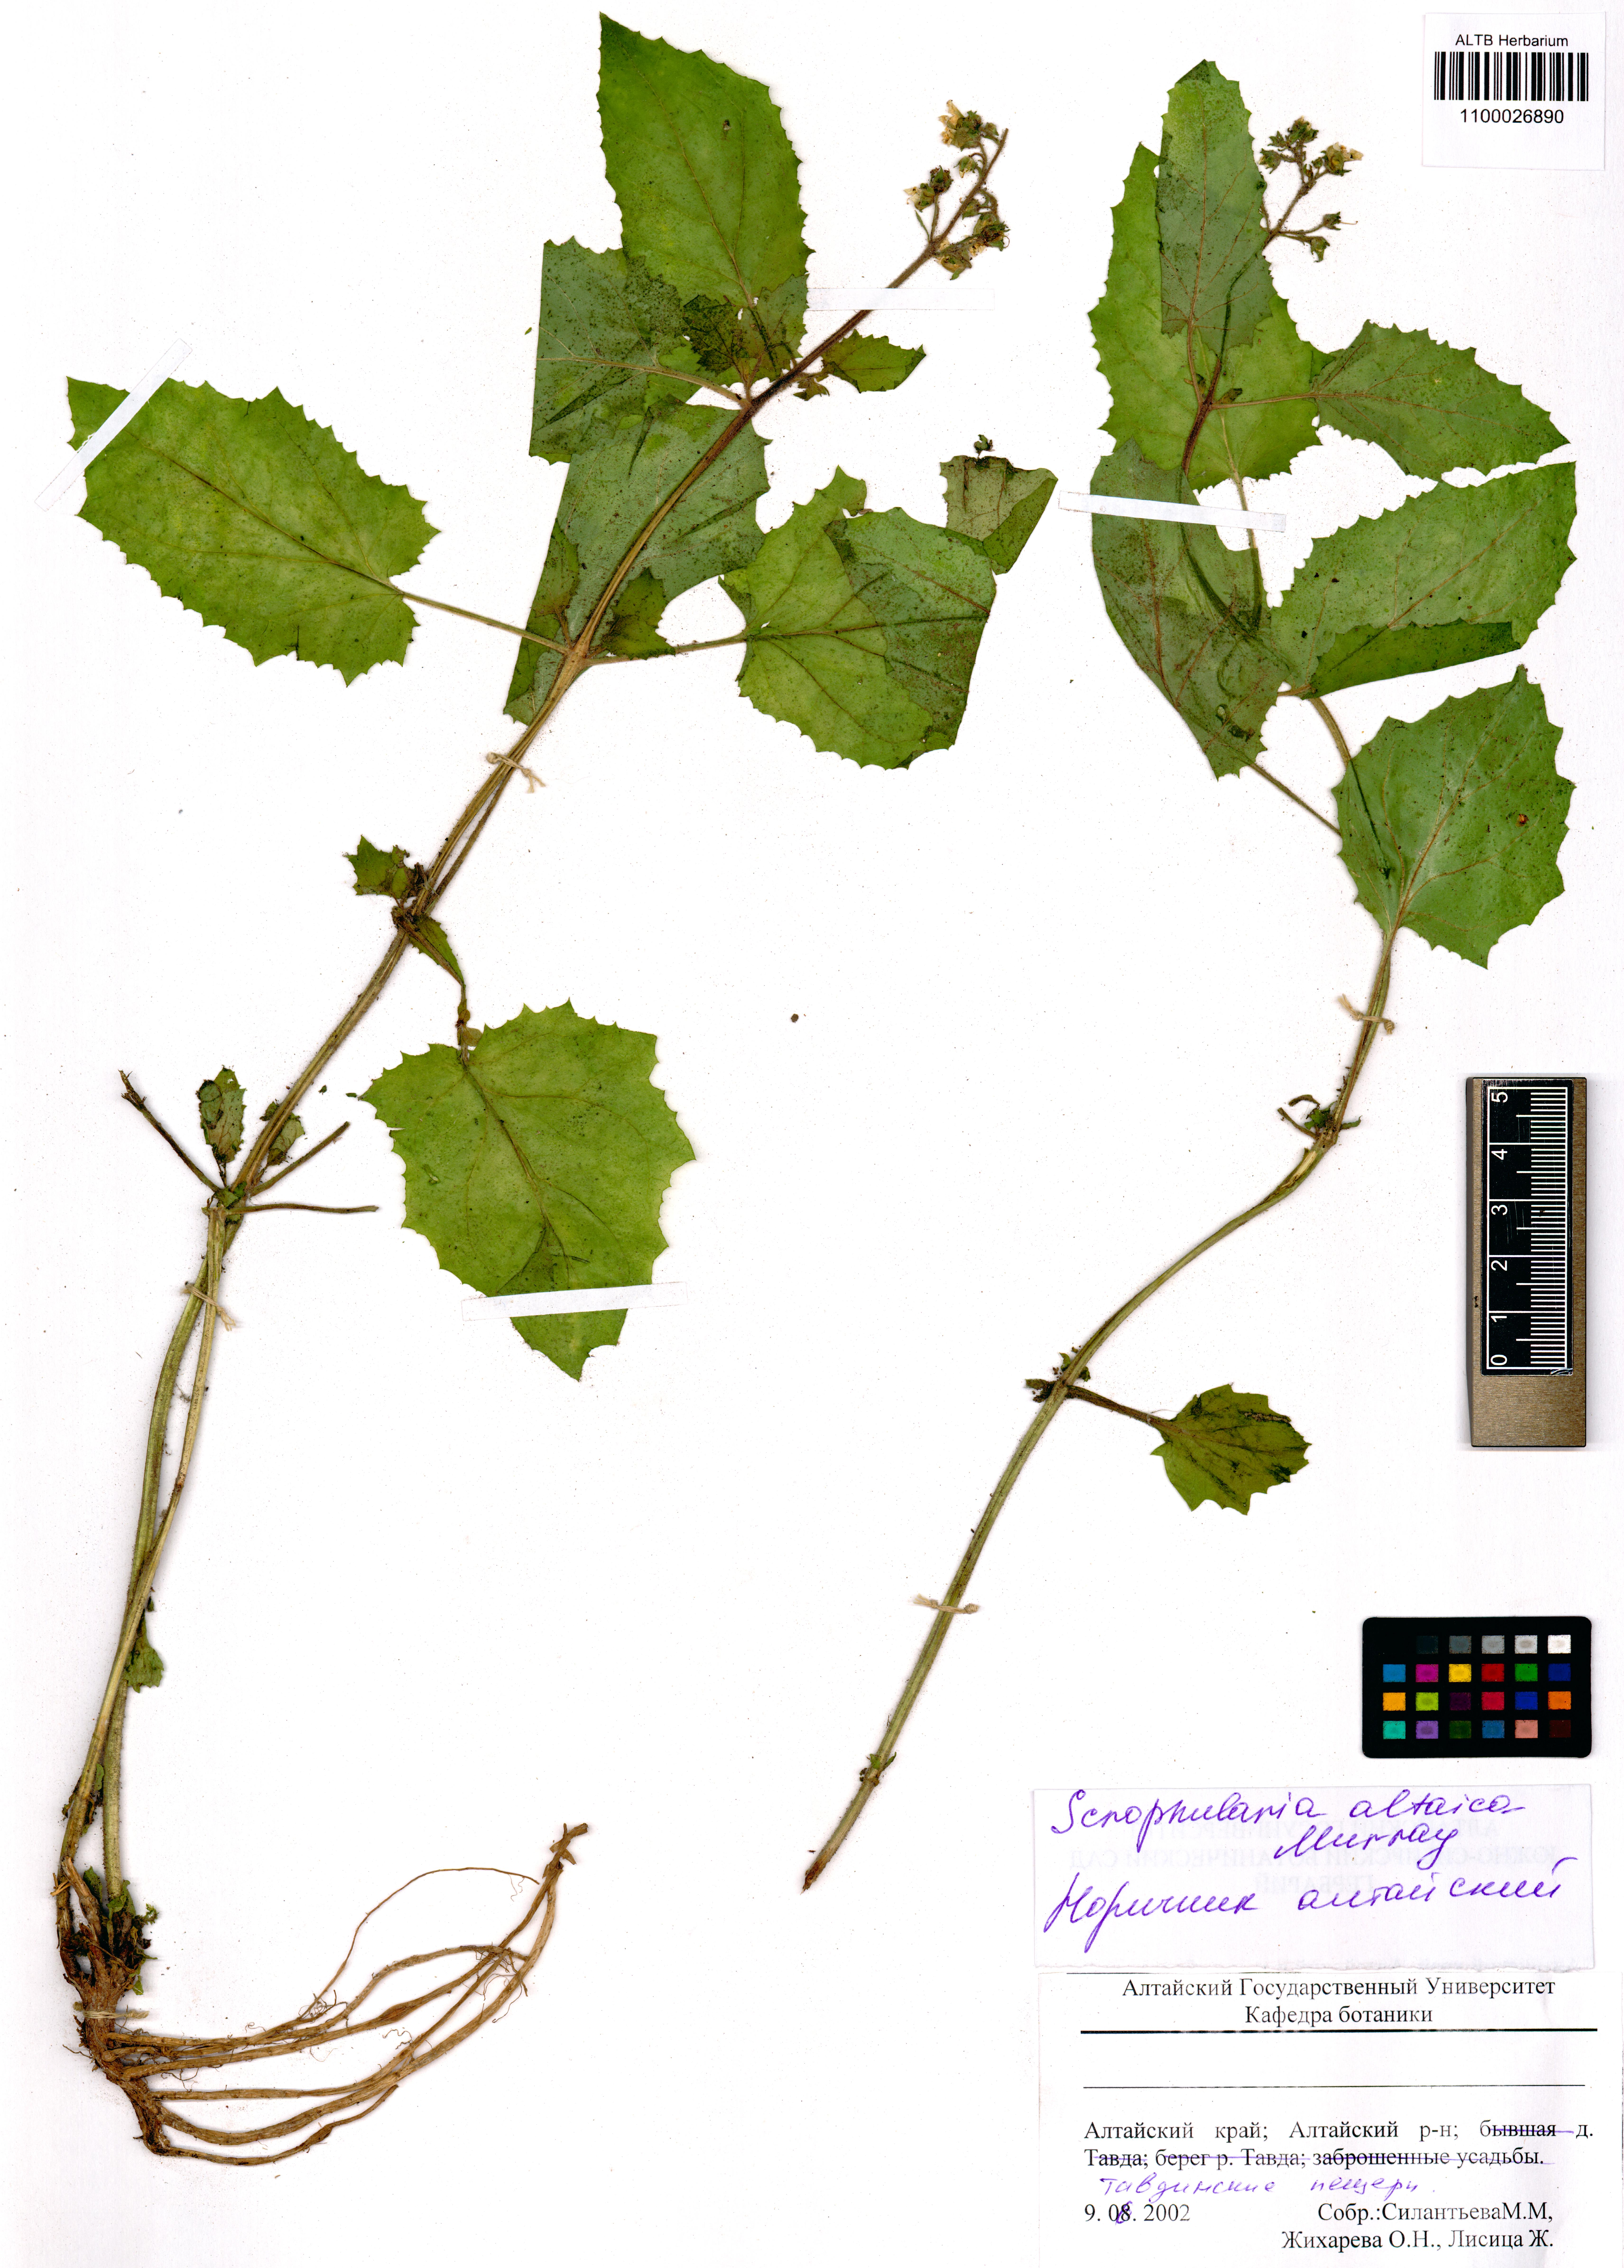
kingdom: Plantae
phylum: Tracheophyta
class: Magnoliopsida
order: Lamiales
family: Scrophulariaceae
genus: Scrophularia
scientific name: Scrophularia altaica
